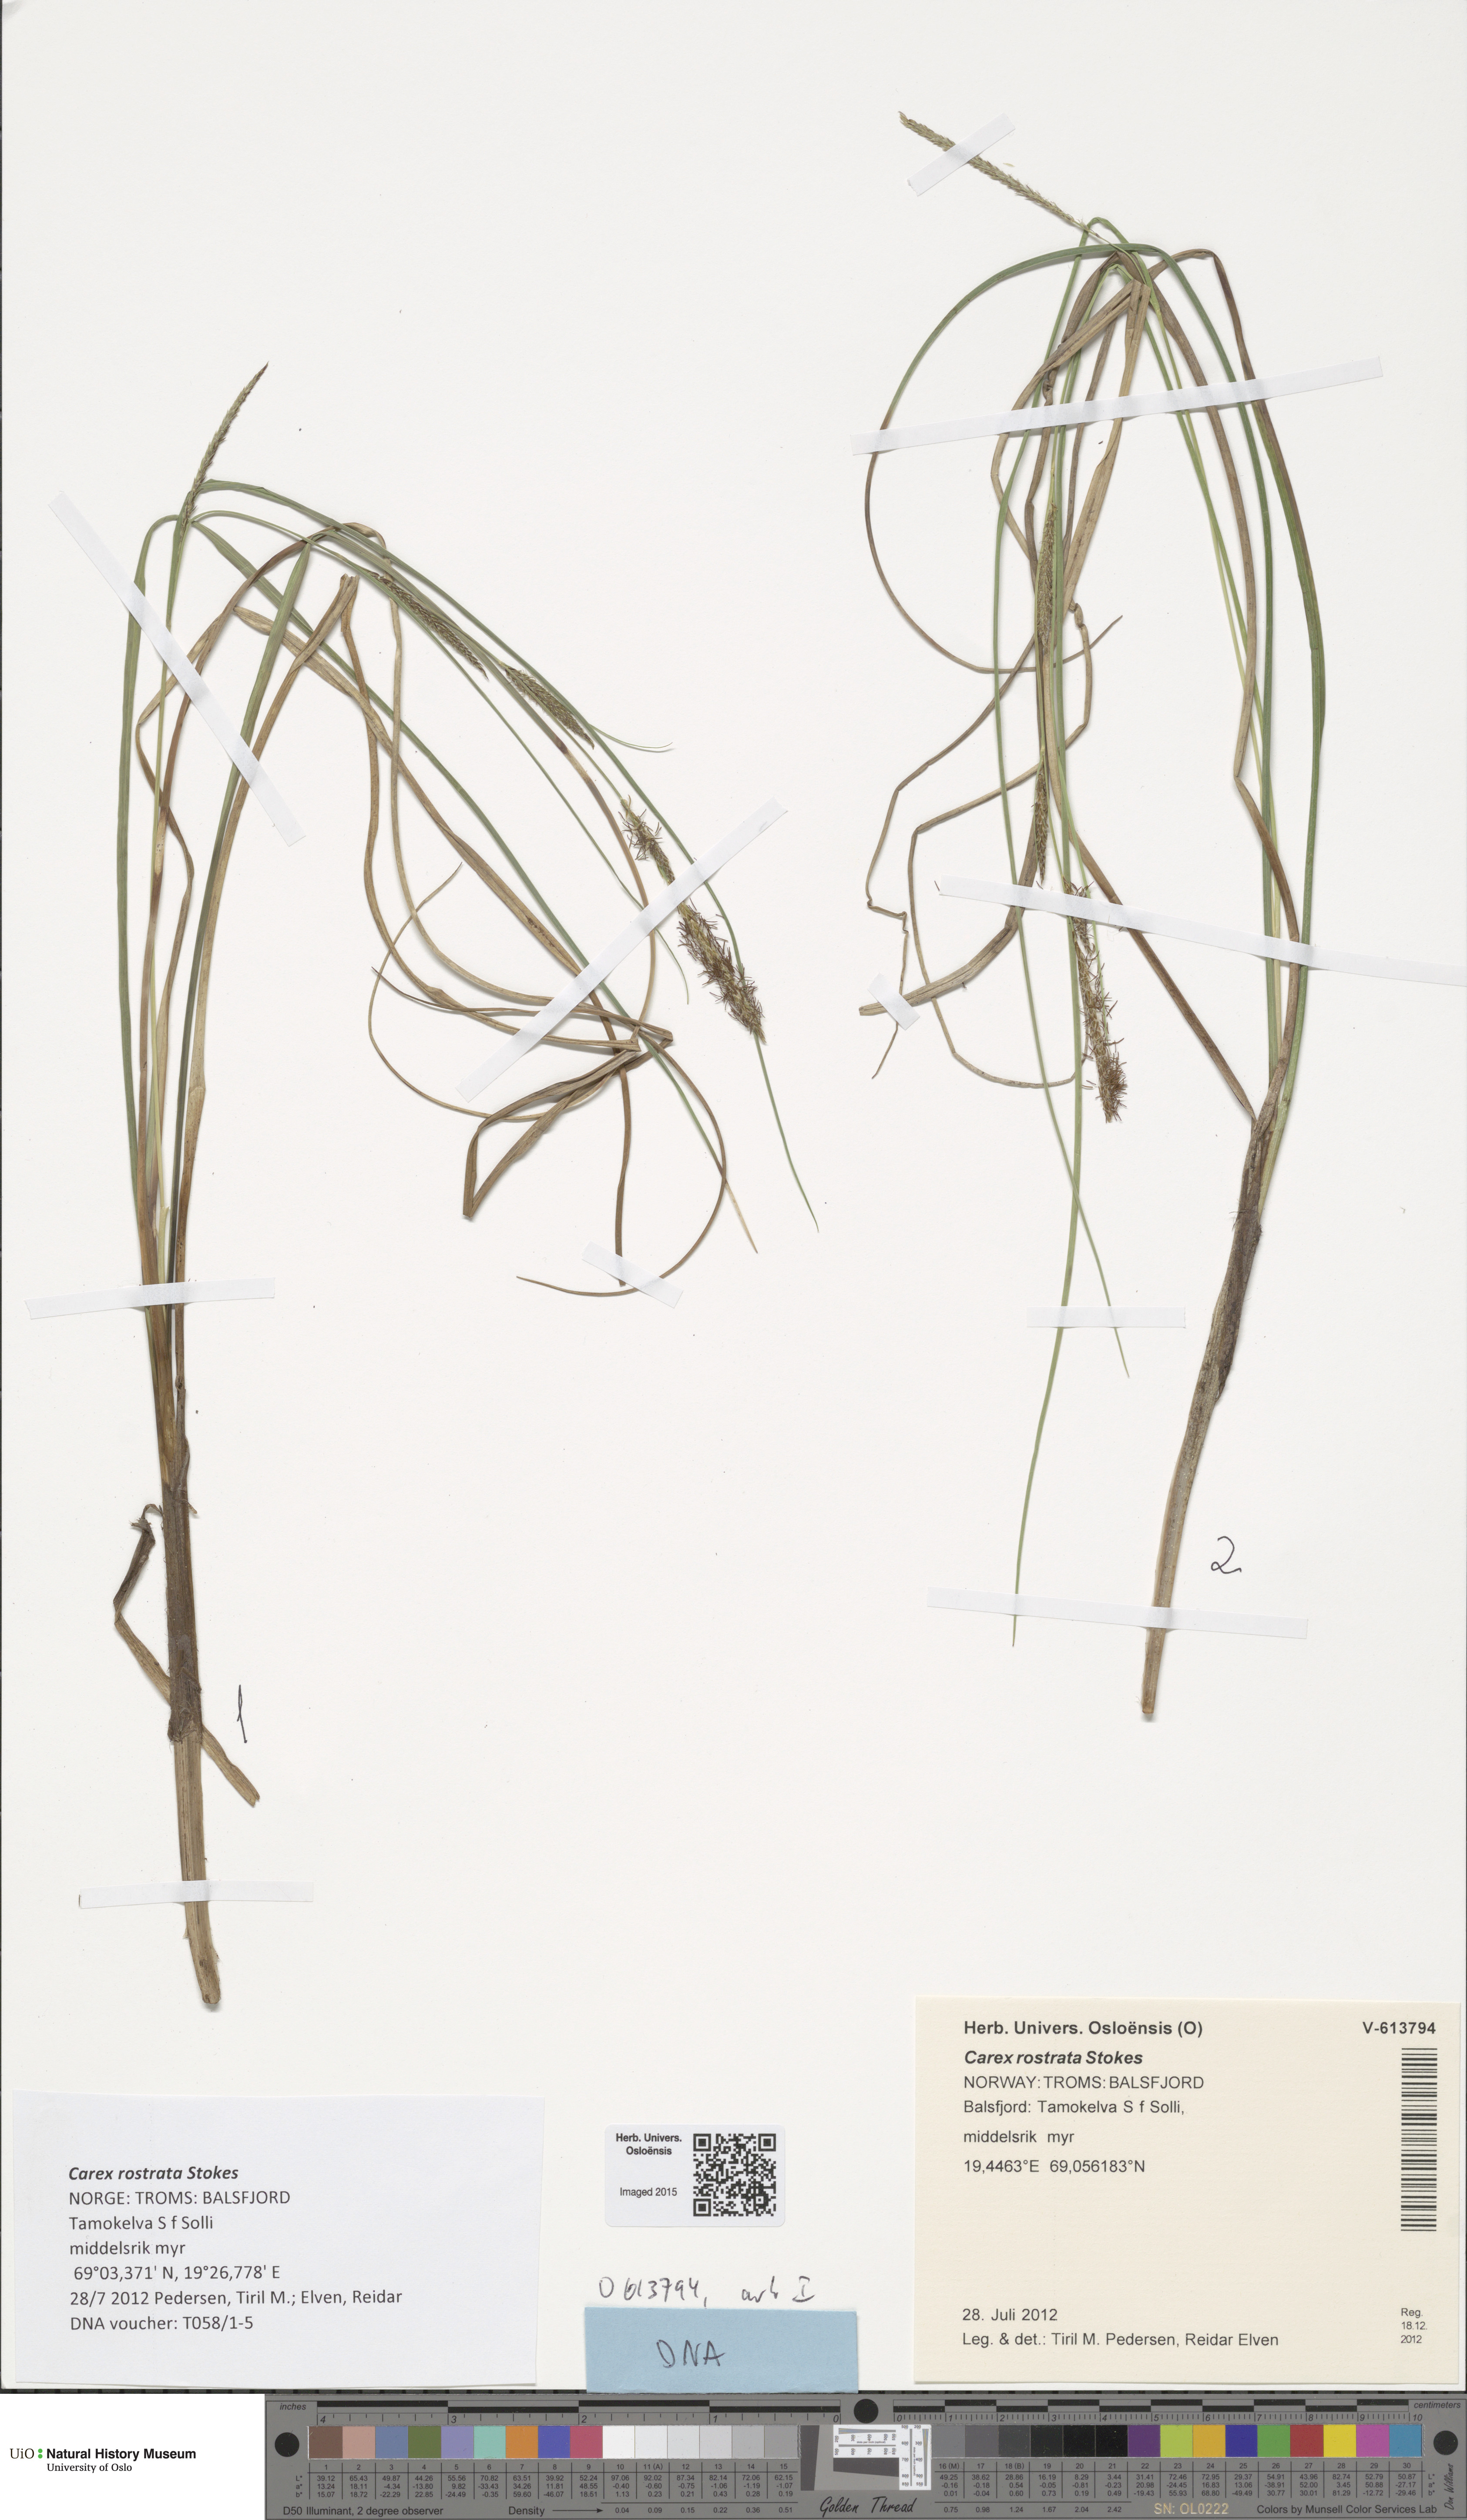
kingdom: Plantae
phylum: Tracheophyta
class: Liliopsida
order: Poales
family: Cyperaceae
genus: Carex
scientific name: Carex rostrata
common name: Bottle sedge
